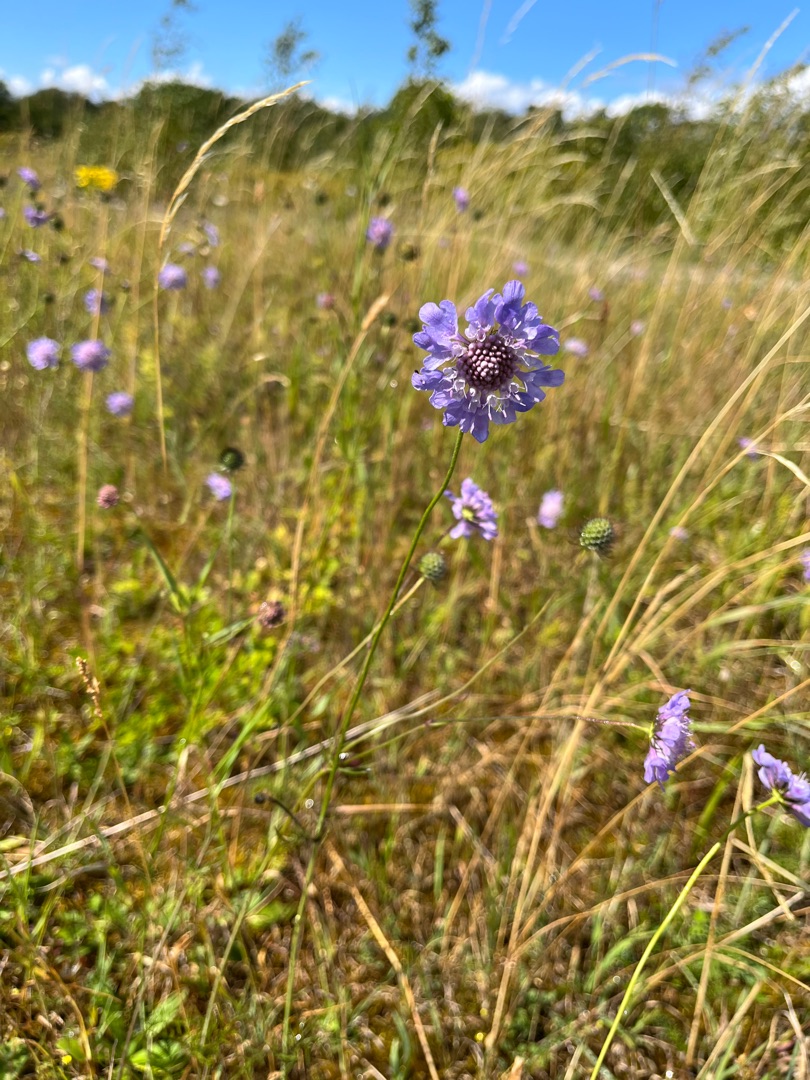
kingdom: Plantae
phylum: Tracheophyta
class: Magnoliopsida
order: Dipsacales
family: Caprifoliaceae
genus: Scabiosa
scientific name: Scabiosa columbaria
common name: Due-skabiose
